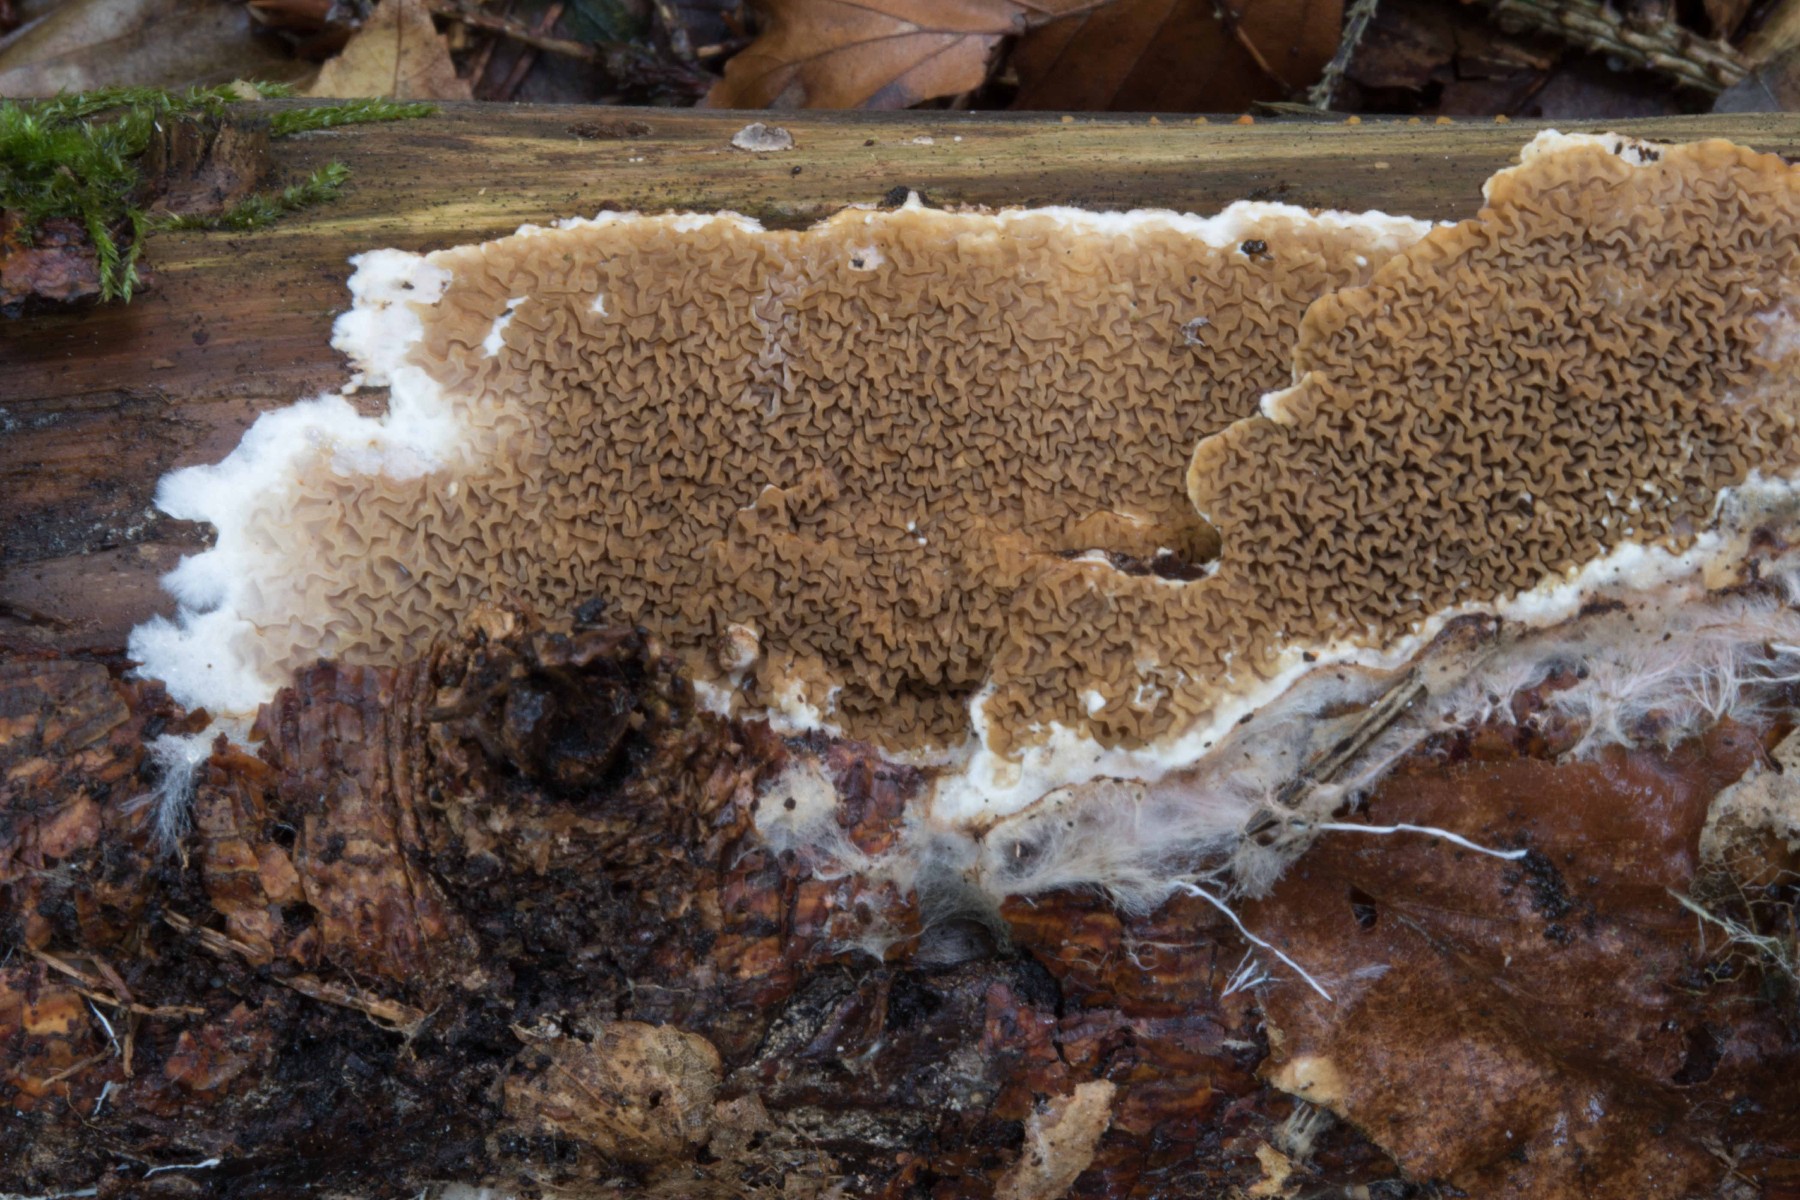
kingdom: Fungi
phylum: Basidiomycota
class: Agaricomycetes
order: Boletales
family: Serpulaceae
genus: Serpula
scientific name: Serpula himantioides
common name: tyndkødet hussvamp
